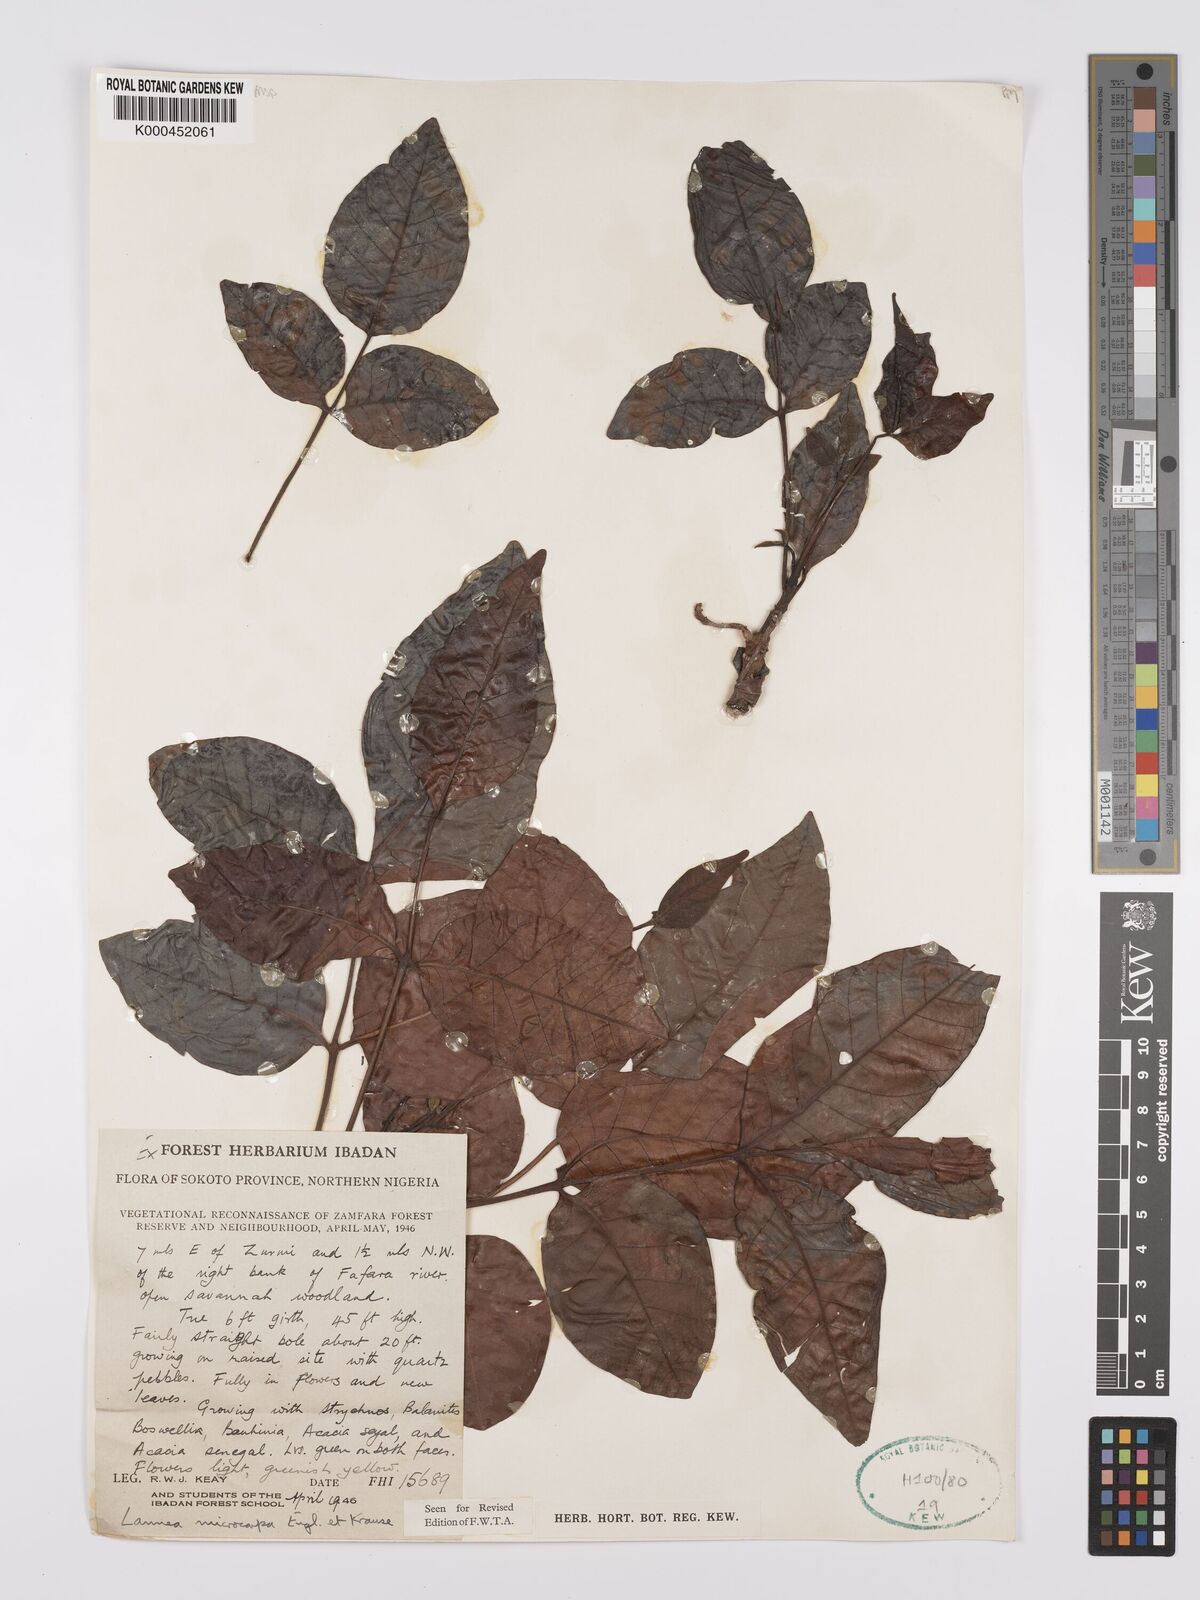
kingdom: Plantae
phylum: Tracheophyta
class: Magnoliopsida
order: Sapindales
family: Anacardiaceae
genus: Lannea
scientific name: Lannea microcarpa
